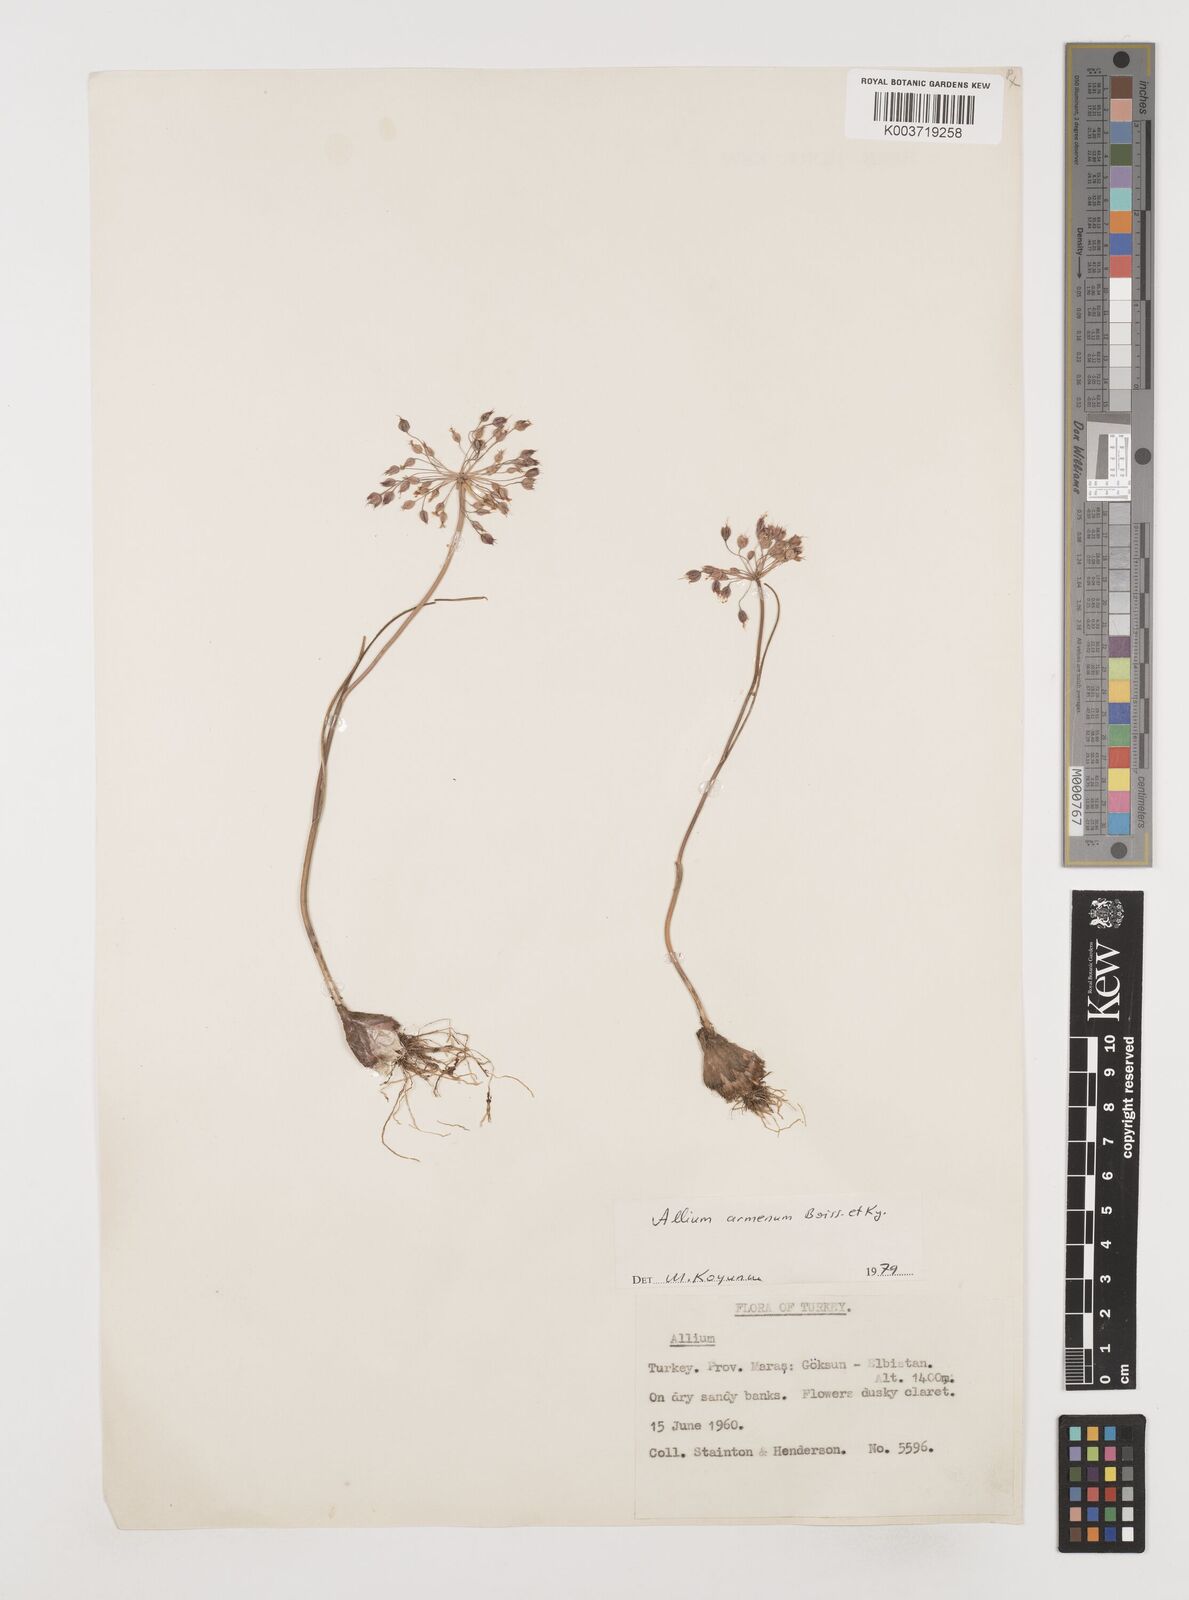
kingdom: Plantae
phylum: Tracheophyta
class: Liliopsida
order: Asparagales
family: Amaryllidaceae
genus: Allium
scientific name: Allium armenum
